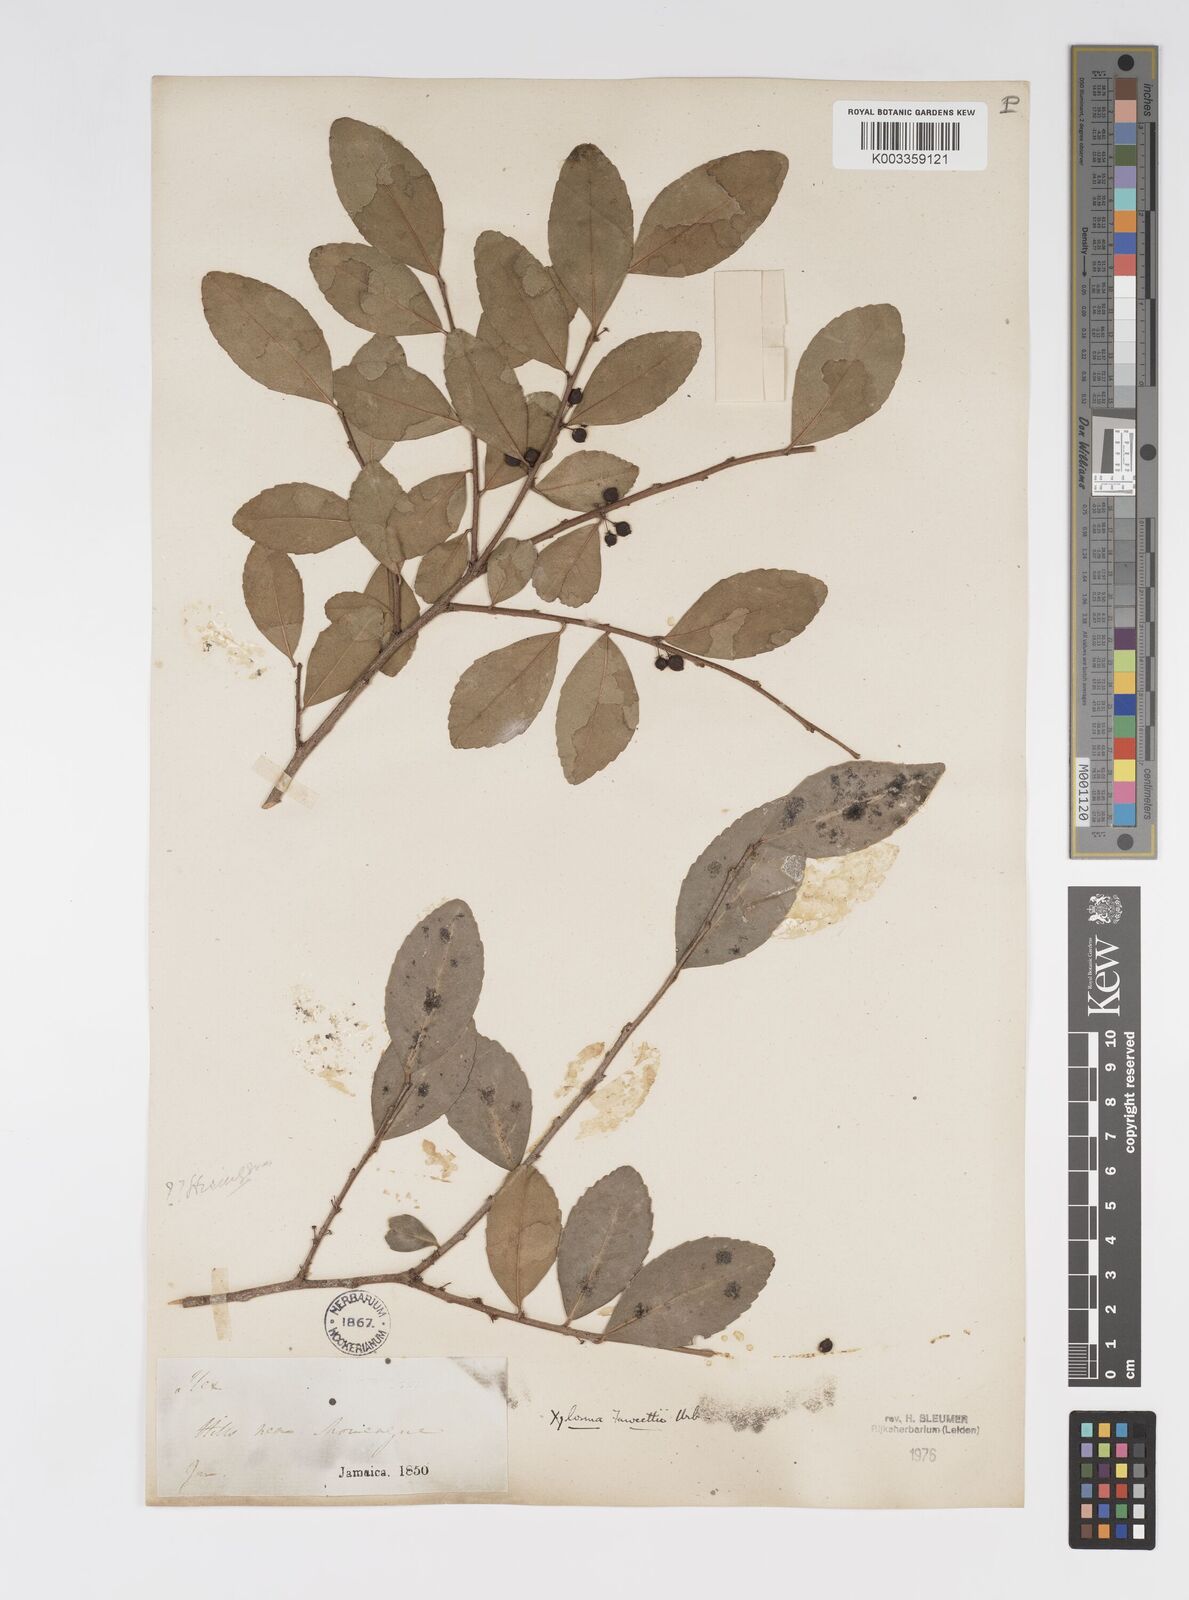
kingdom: Plantae
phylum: Tracheophyta
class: Magnoliopsida
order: Malpighiales
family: Salicaceae
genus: Xylosma
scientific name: Xylosma fawcettii
